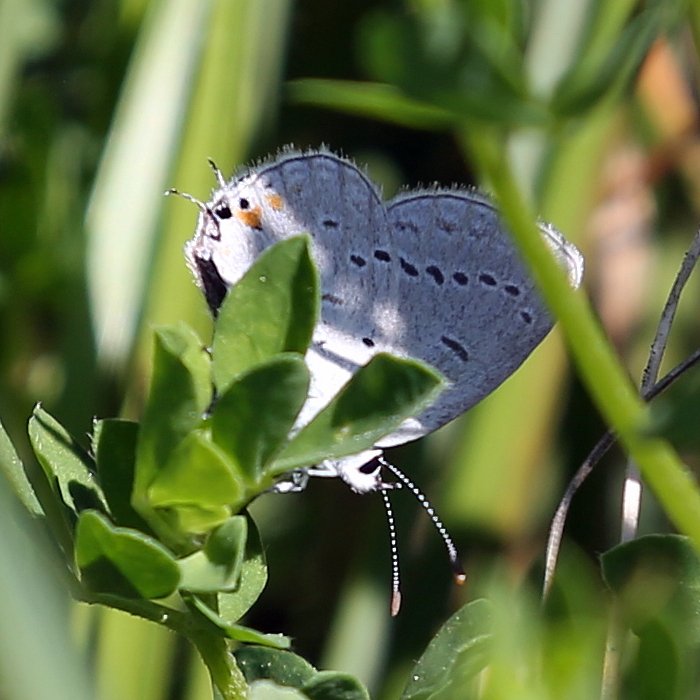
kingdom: Animalia
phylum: Arthropoda
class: Insecta
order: Lepidoptera
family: Lycaenidae
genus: Elkalyce
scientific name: Elkalyce comyntas
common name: Eastern Tailed-Blue
